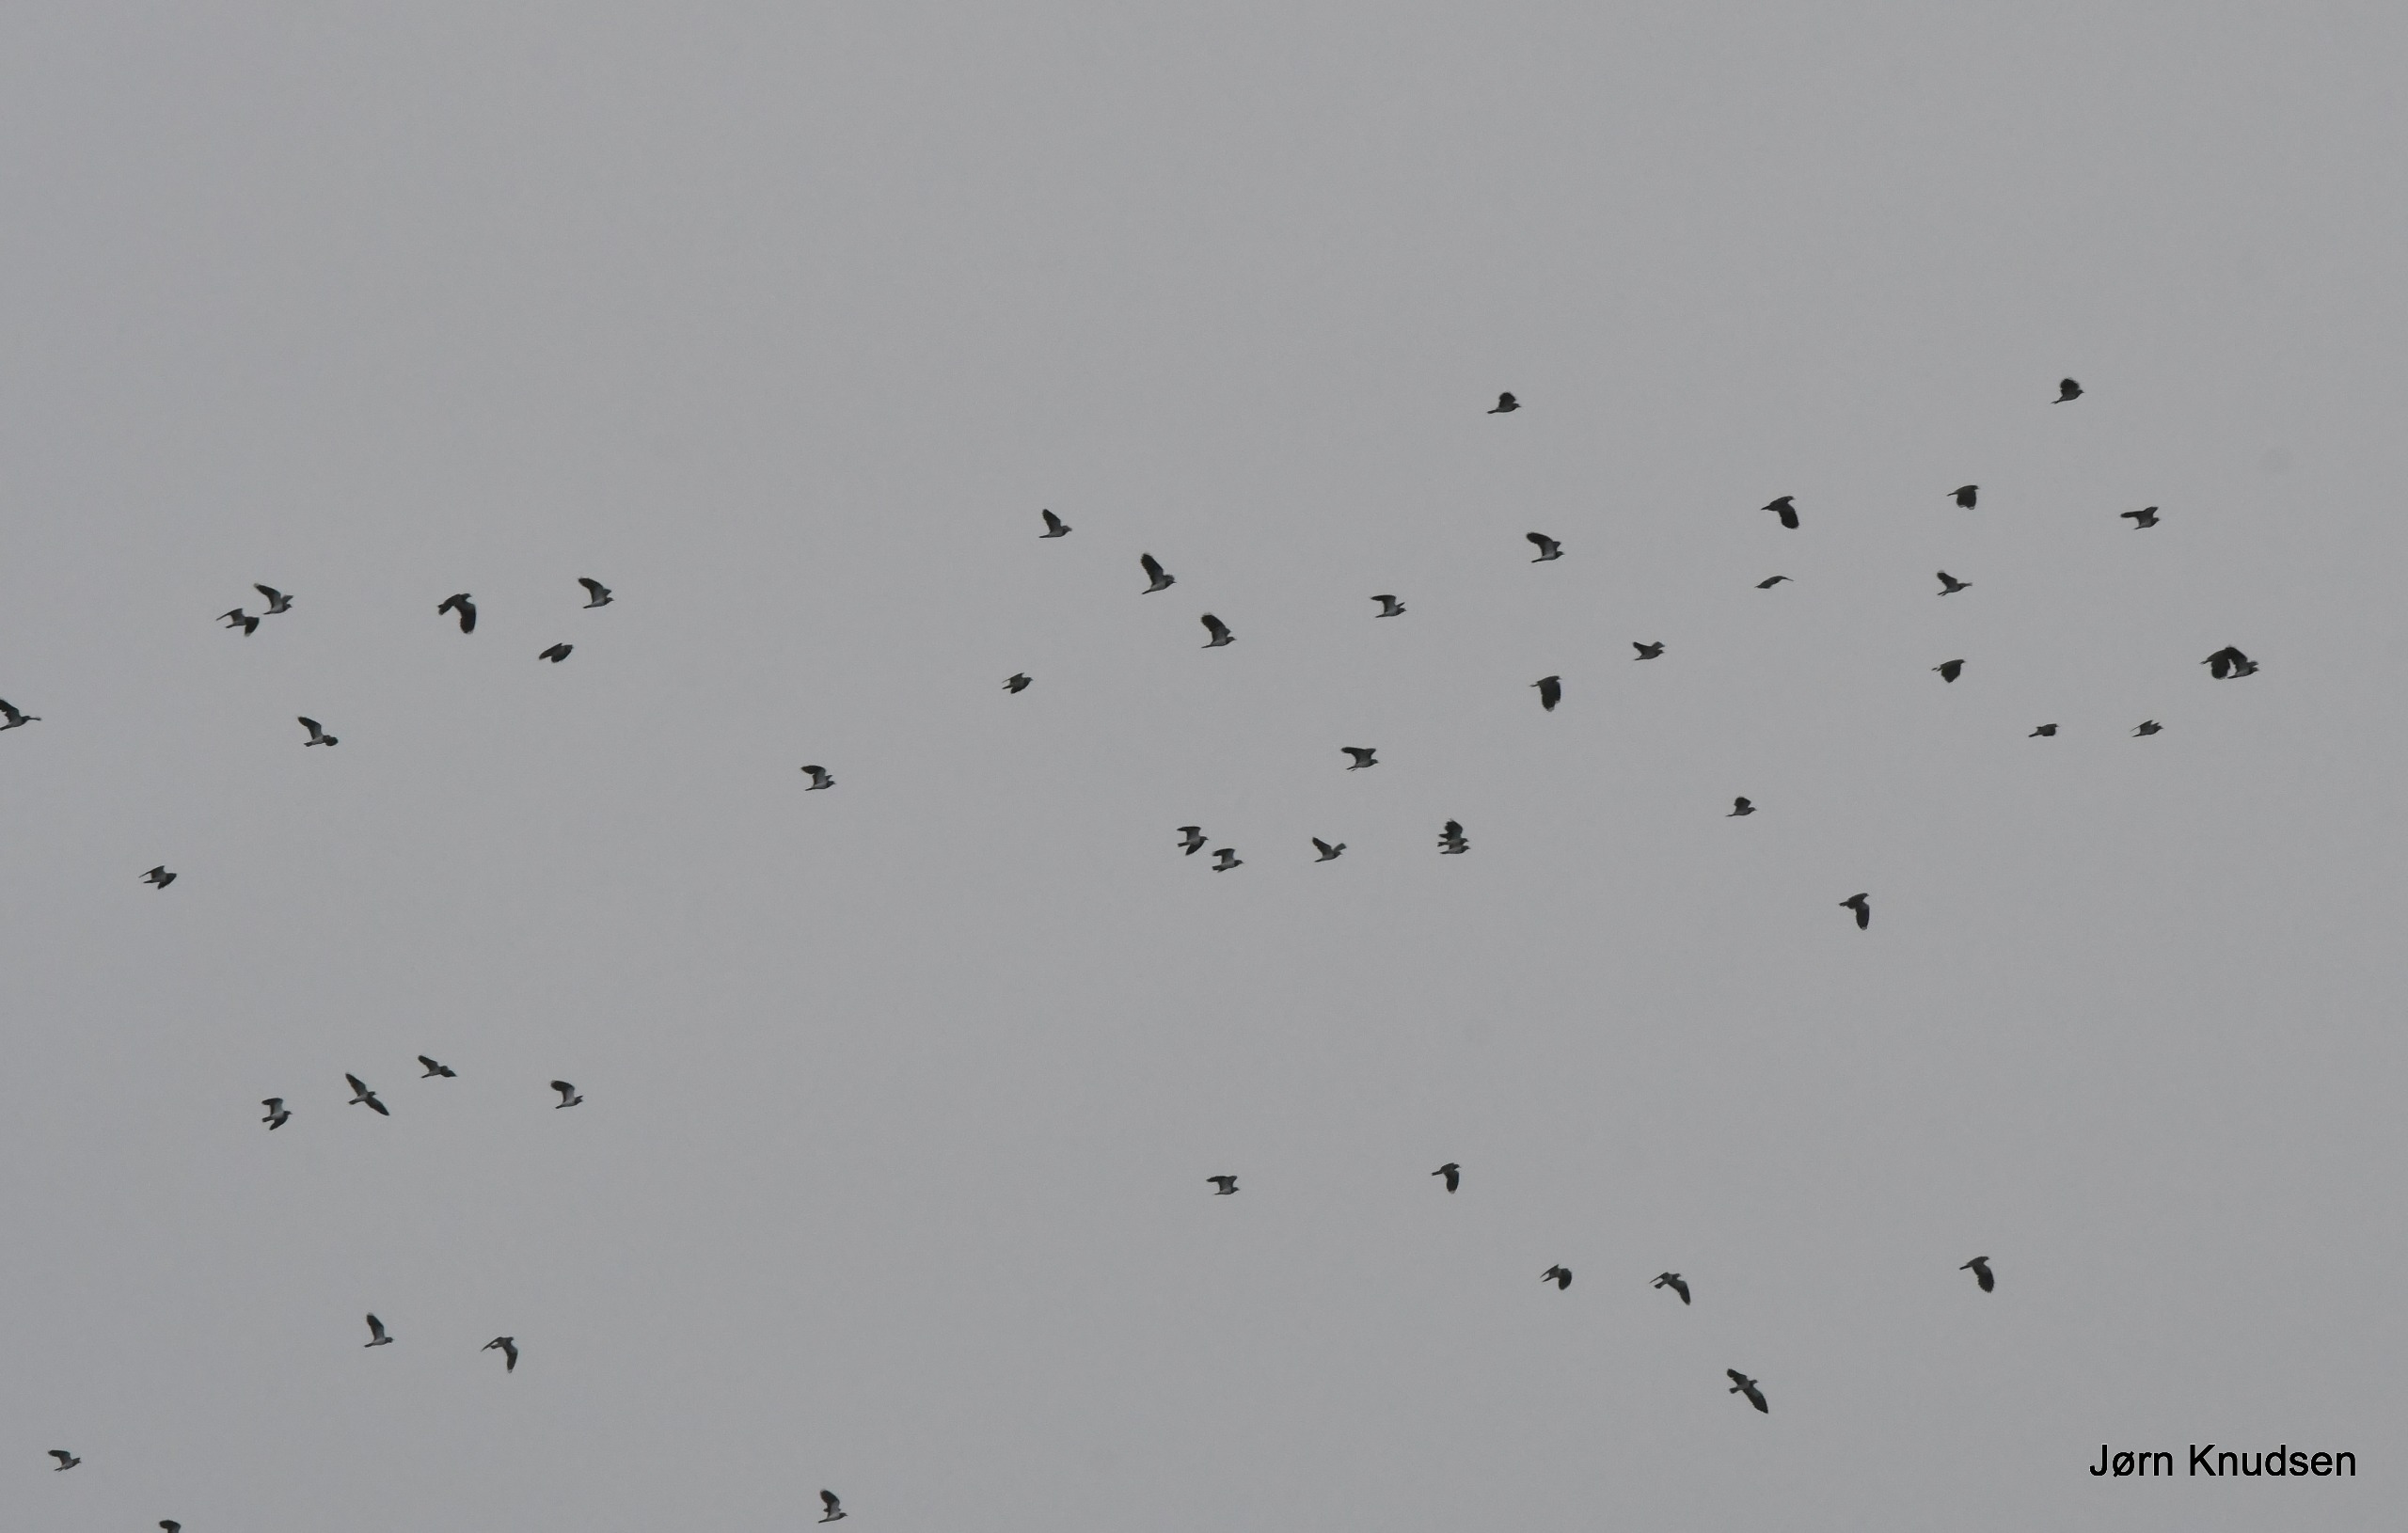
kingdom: Animalia
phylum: Chordata
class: Aves
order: Charadriiformes
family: Charadriidae
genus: Vanellus
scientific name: Vanellus vanellus
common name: Vibe
